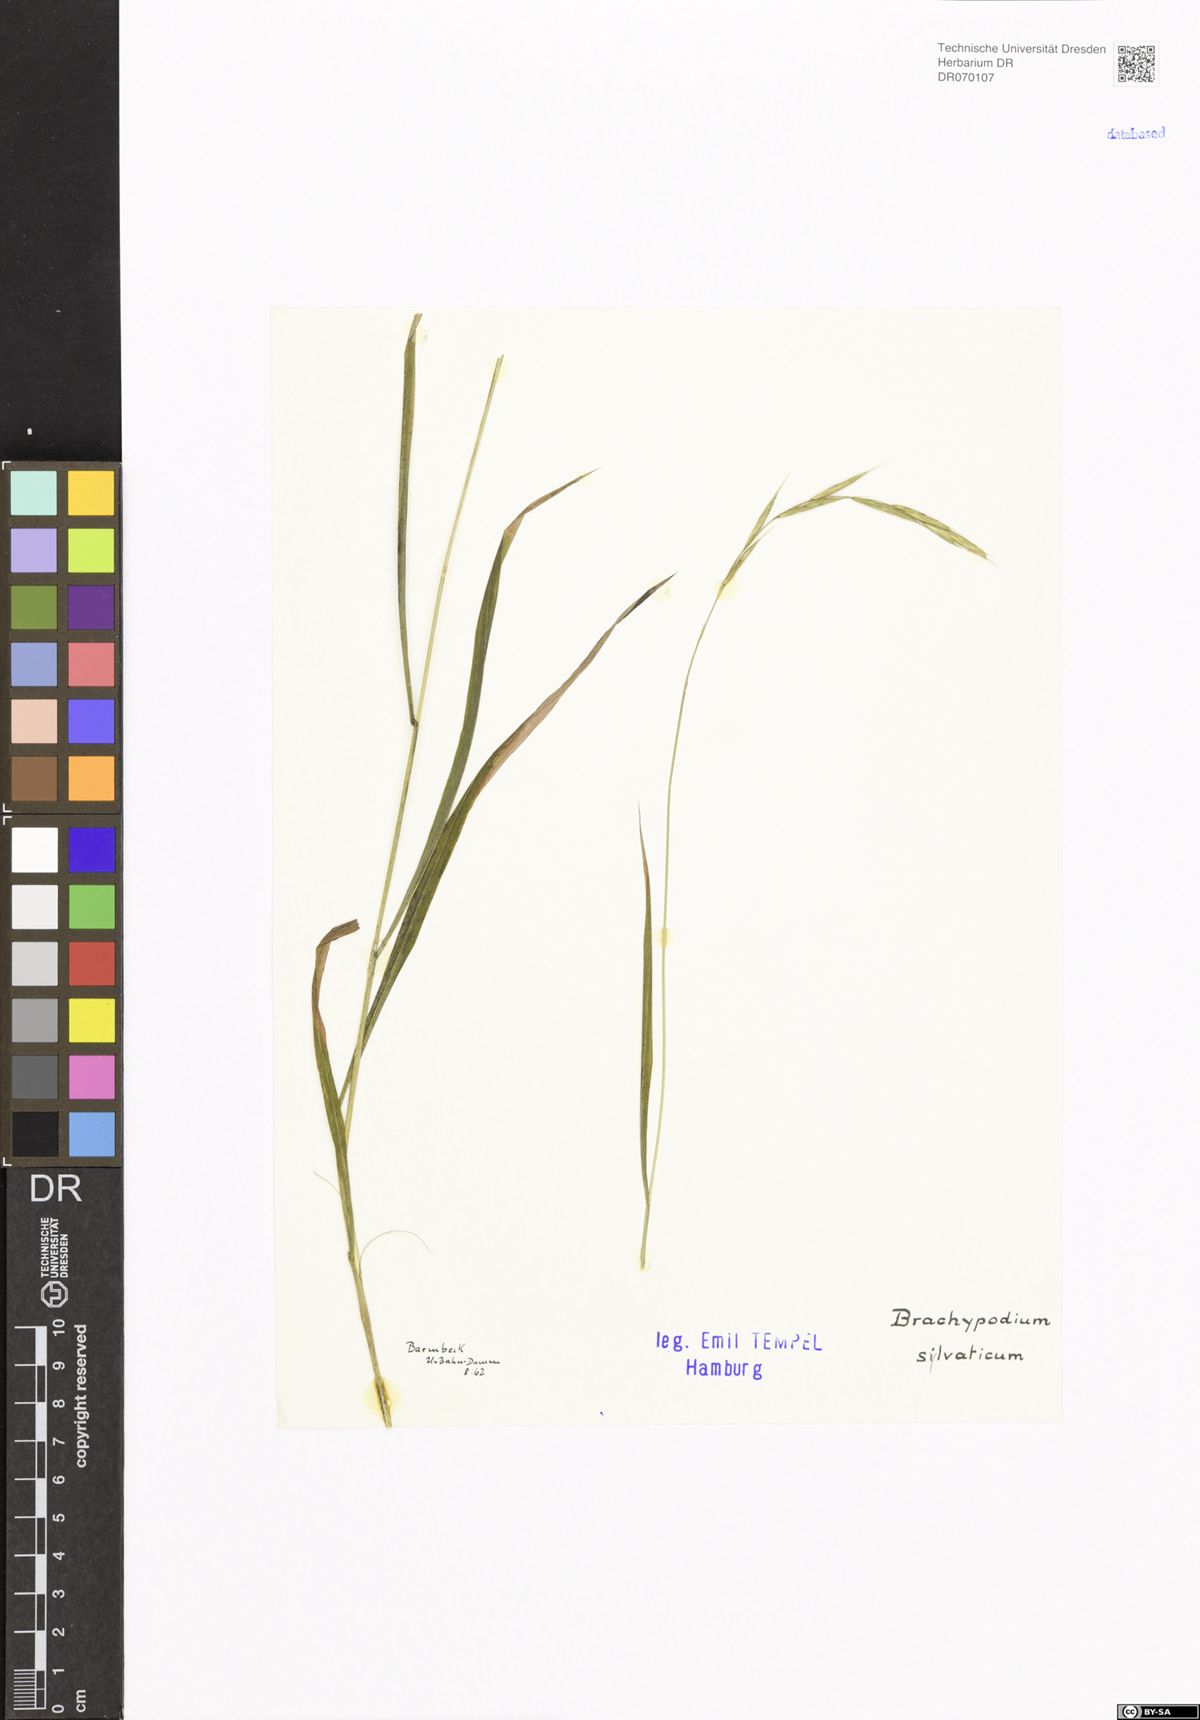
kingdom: Plantae
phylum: Tracheophyta
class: Liliopsida
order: Poales
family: Poaceae
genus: Brachypodium
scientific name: Brachypodium sylvaticum
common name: False-brome
